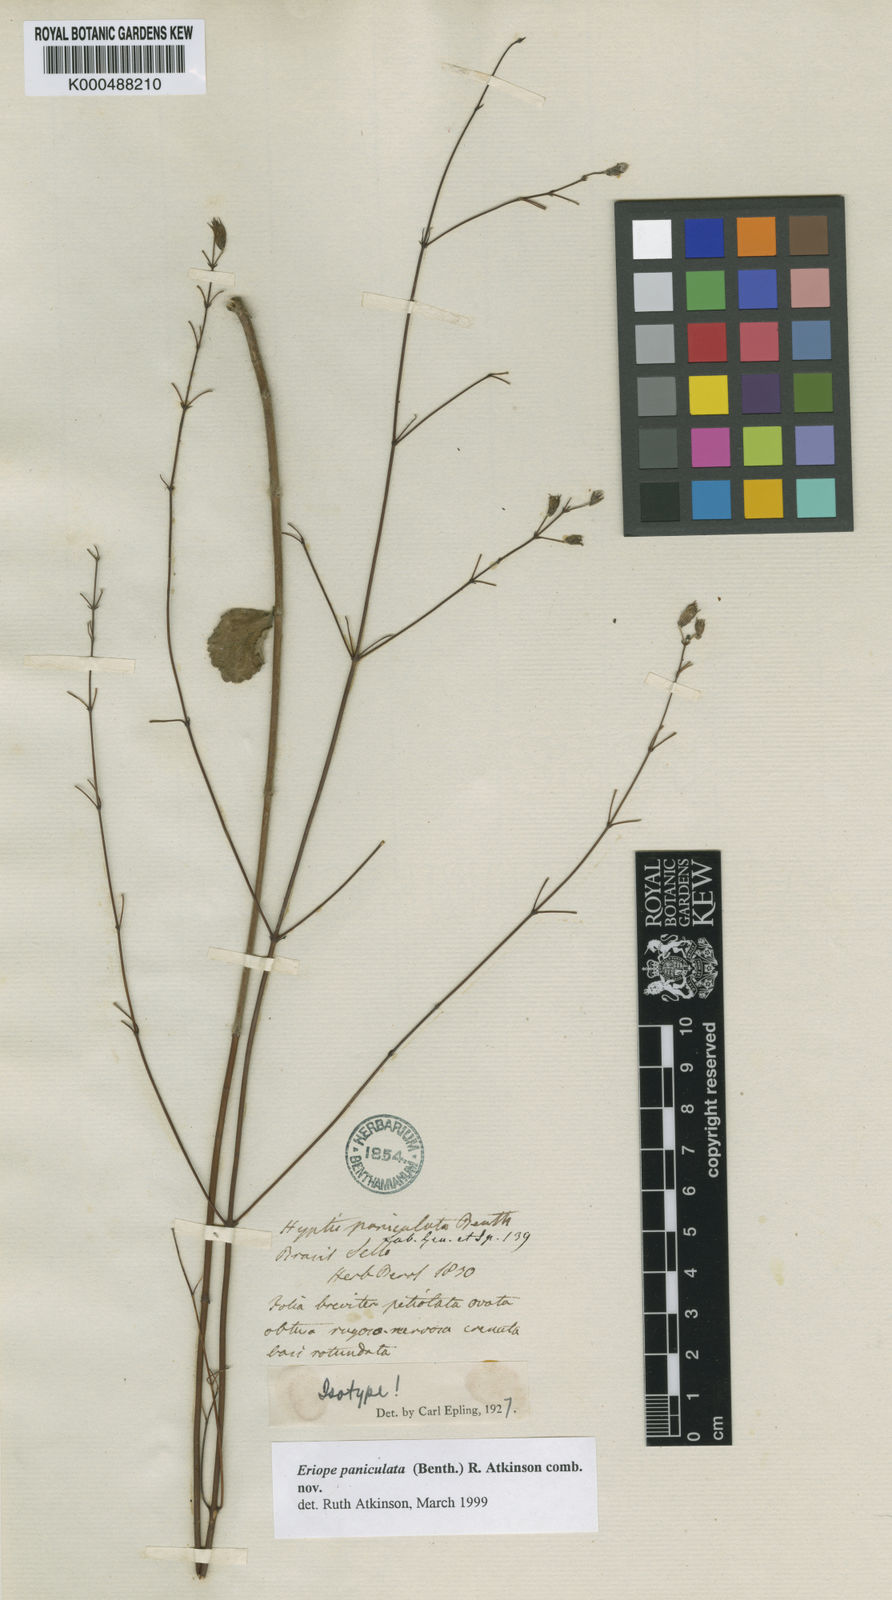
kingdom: Plantae
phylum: Tracheophyta
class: Magnoliopsida
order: Lamiales
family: Lamiaceae
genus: Hypenia
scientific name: Hypenia paniculata
